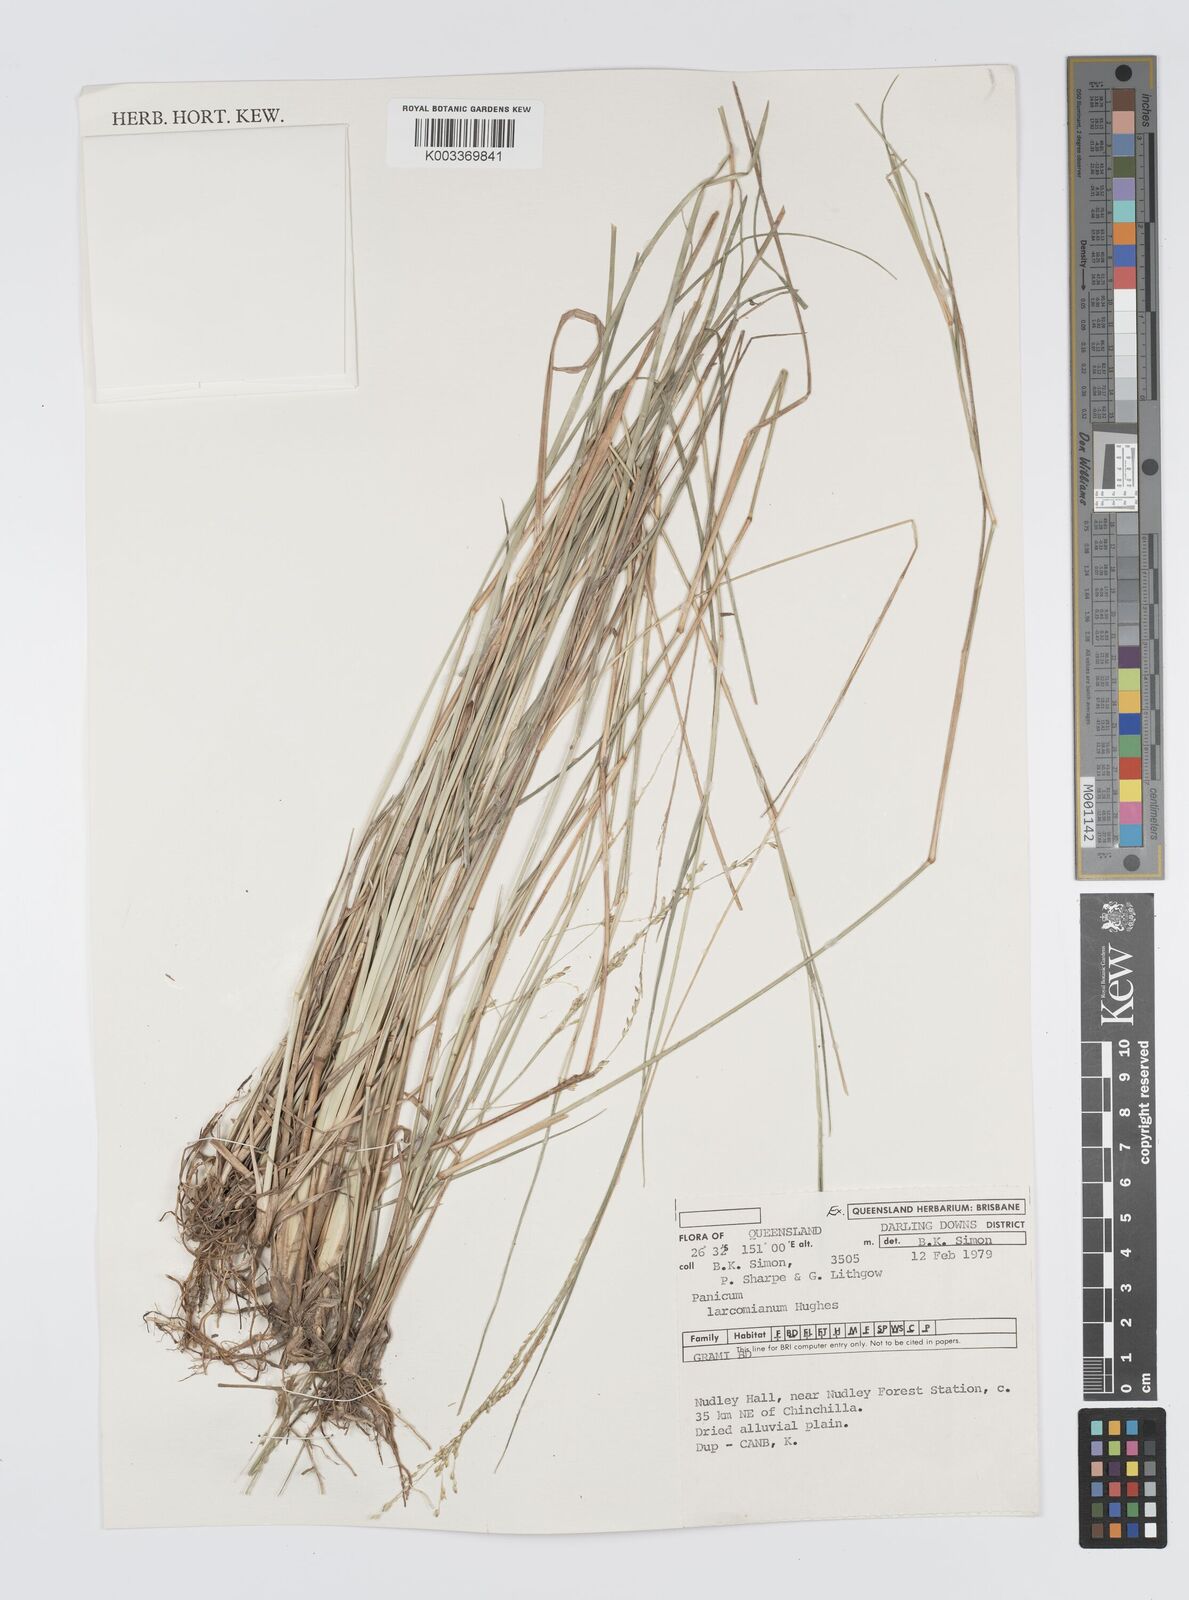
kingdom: Plantae
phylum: Tracheophyta
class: Liliopsida
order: Poales
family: Poaceae
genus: Panicum
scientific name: Panicum larcomianum
